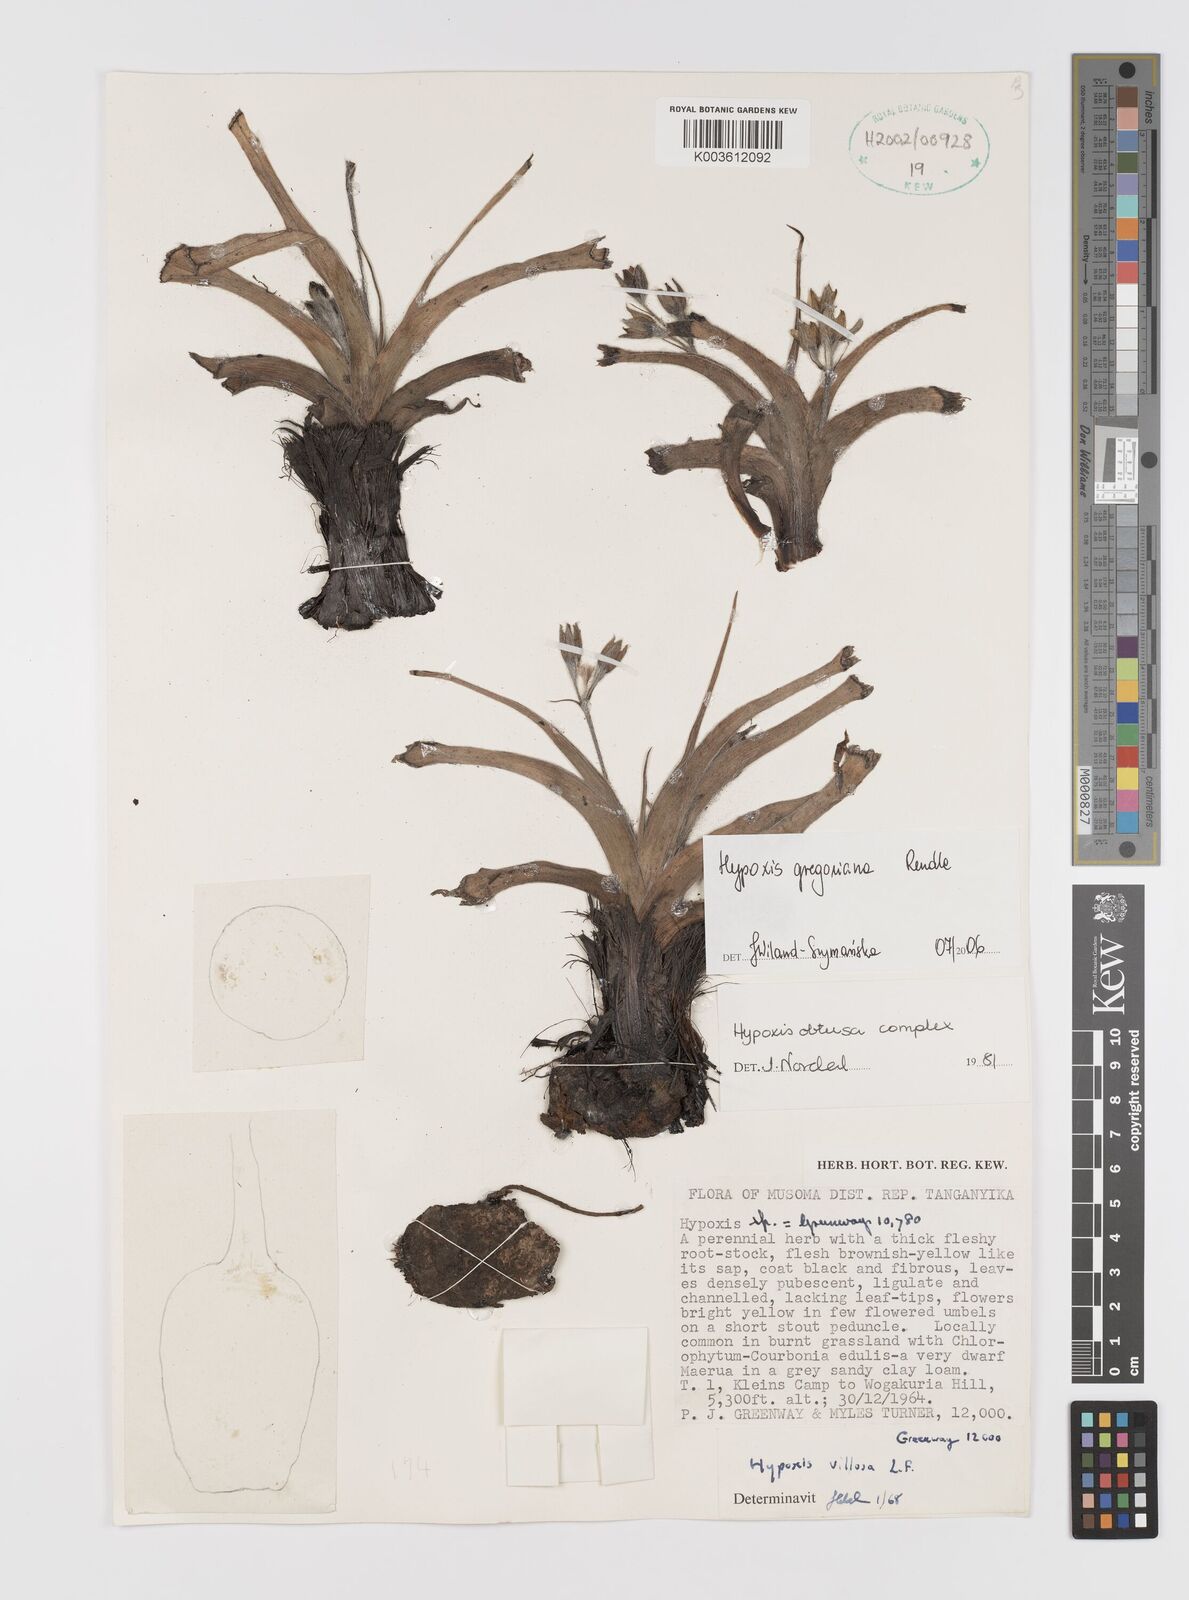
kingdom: Plantae
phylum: Tracheophyta
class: Liliopsida
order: Asparagales
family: Hypoxidaceae
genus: Hypoxis
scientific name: Hypoxis gregoriana
